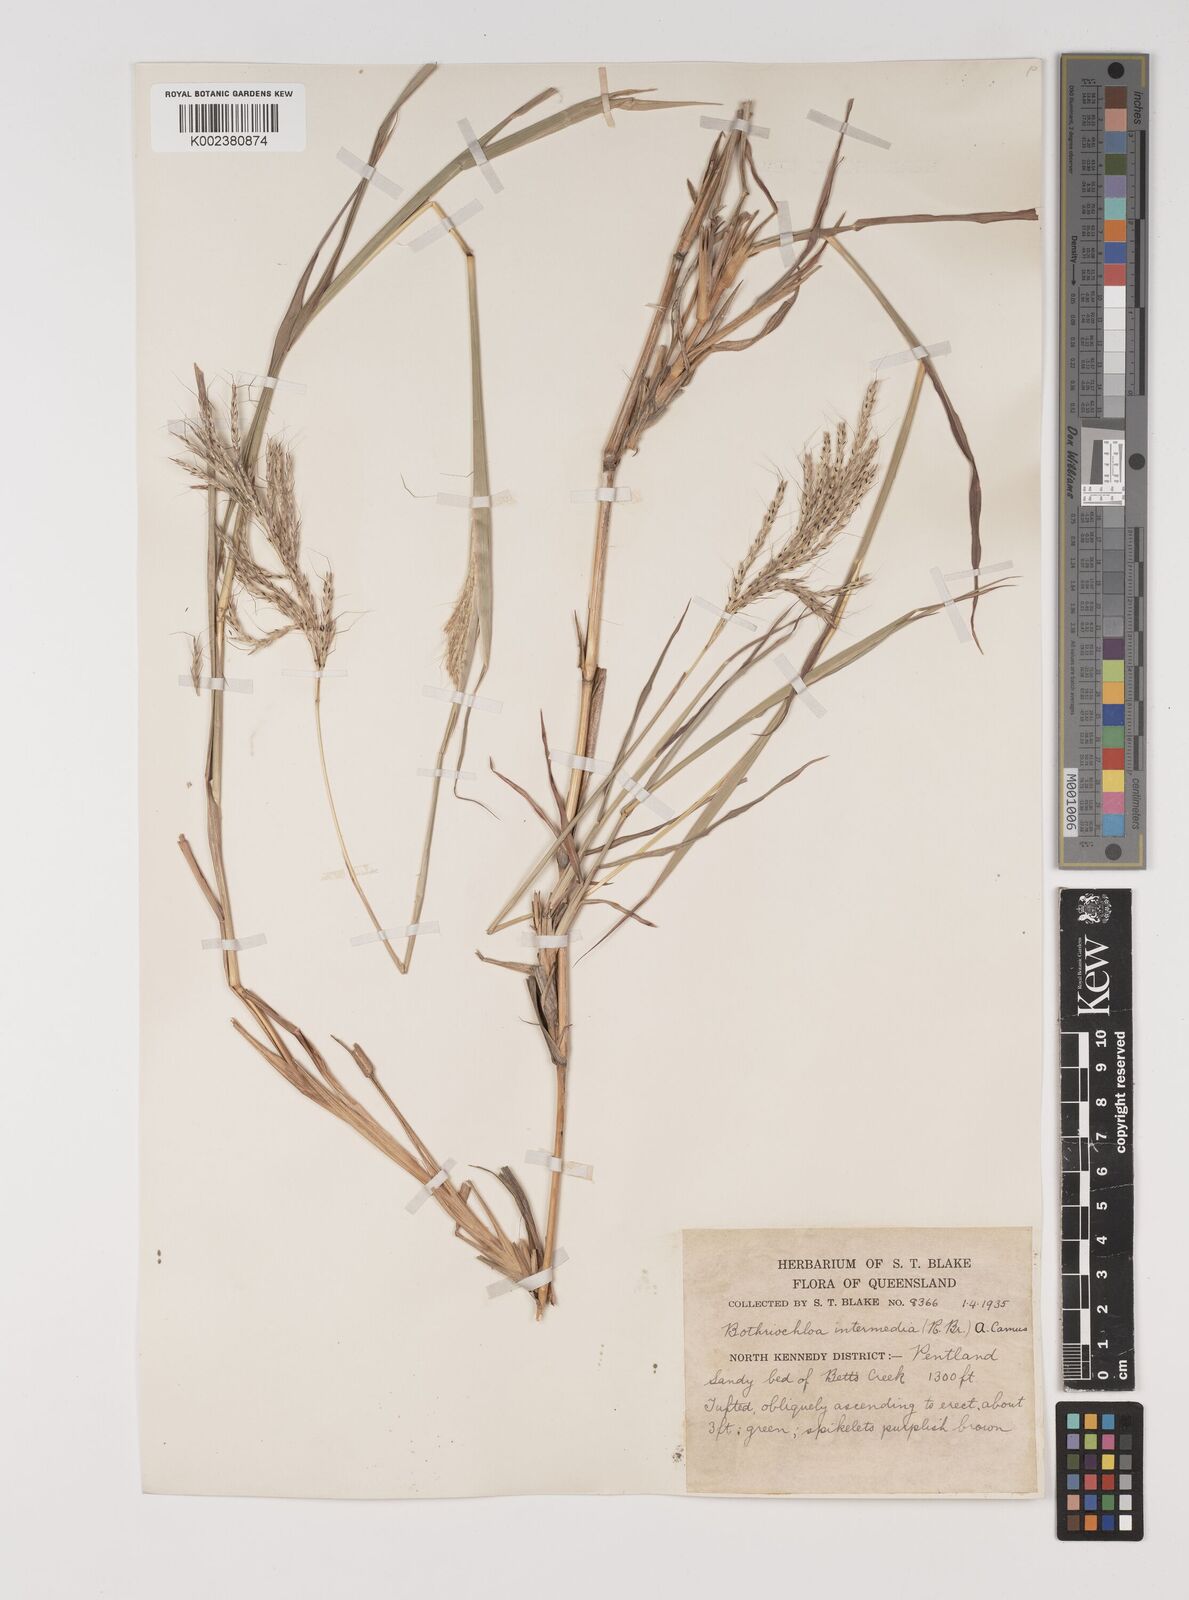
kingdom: Plantae
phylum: Tracheophyta
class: Liliopsida
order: Poales
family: Poaceae
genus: Bothriochloa
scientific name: Bothriochloa bladhii
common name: Caucasian bluestem
